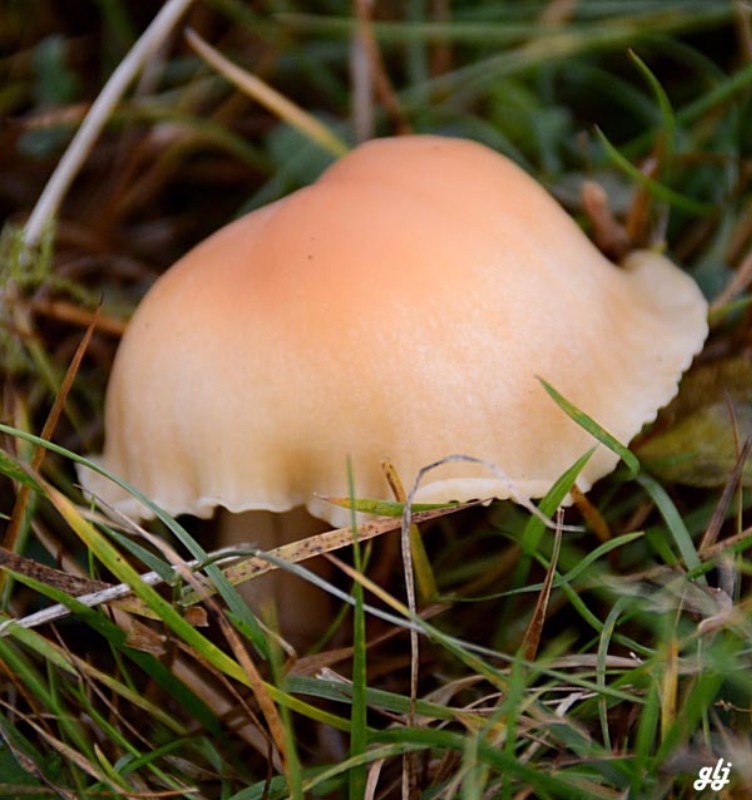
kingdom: Fungi
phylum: Basidiomycota
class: Agaricomycetes
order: Agaricales
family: Hygrophoraceae
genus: Cuphophyllus
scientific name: Cuphophyllus pratensis
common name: eng-vokshat
